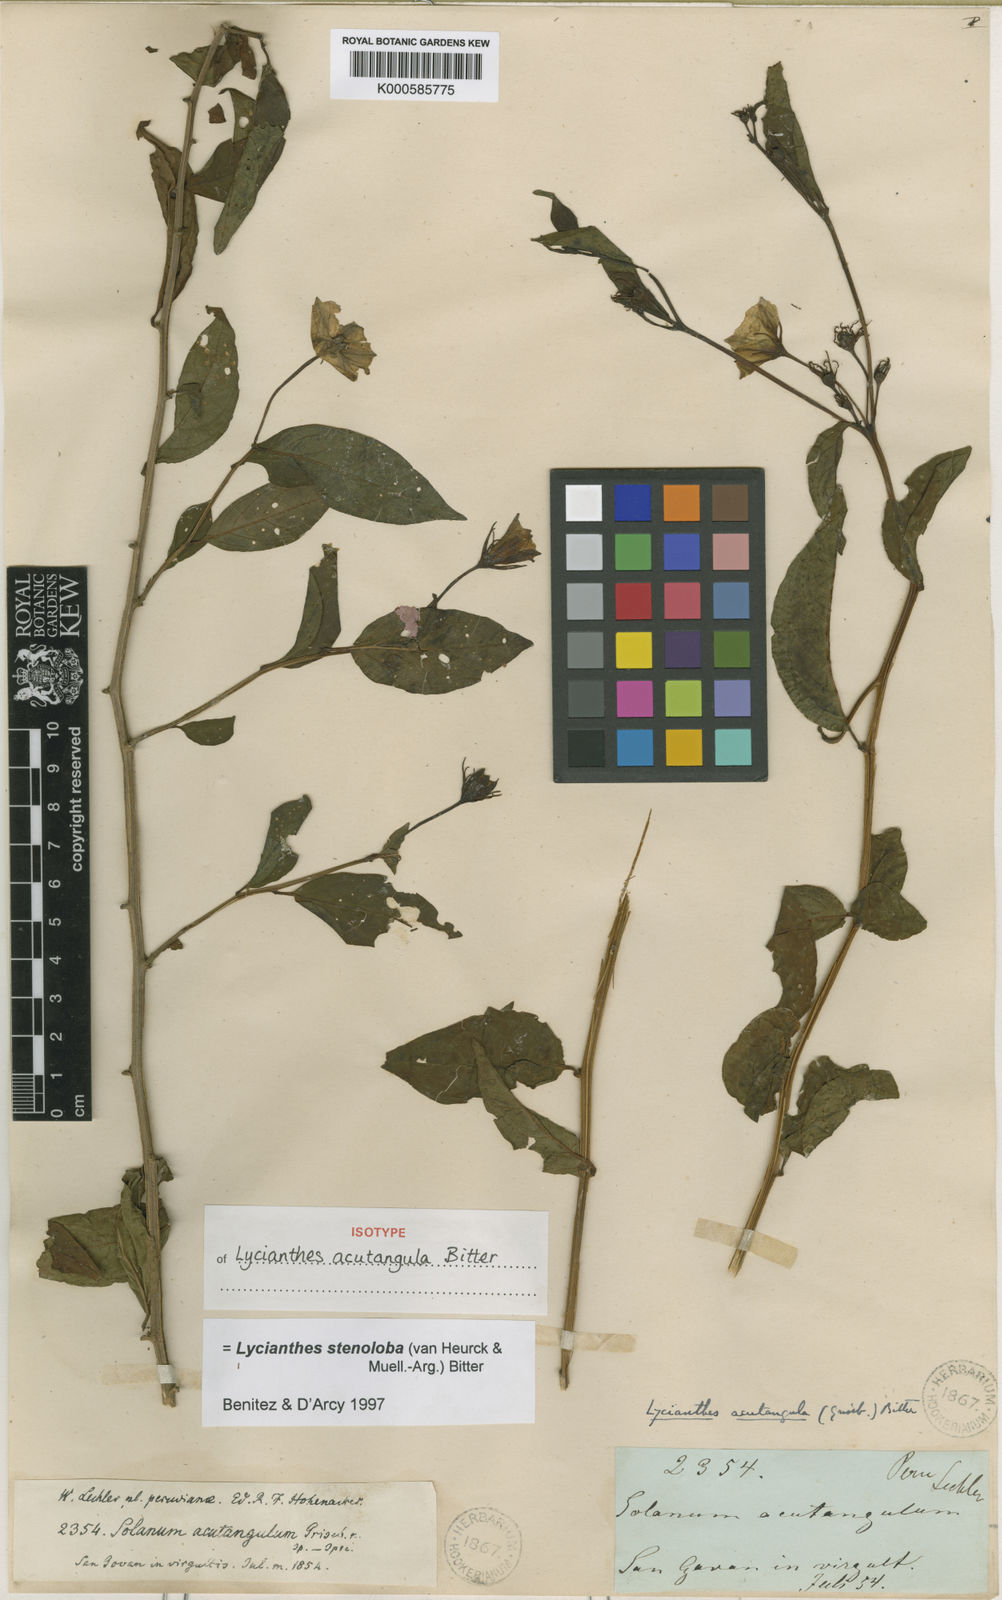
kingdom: Plantae
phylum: Tracheophyta
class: Magnoliopsida
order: Solanales
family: Solanaceae
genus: Lycianthes
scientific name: Lycianthes
